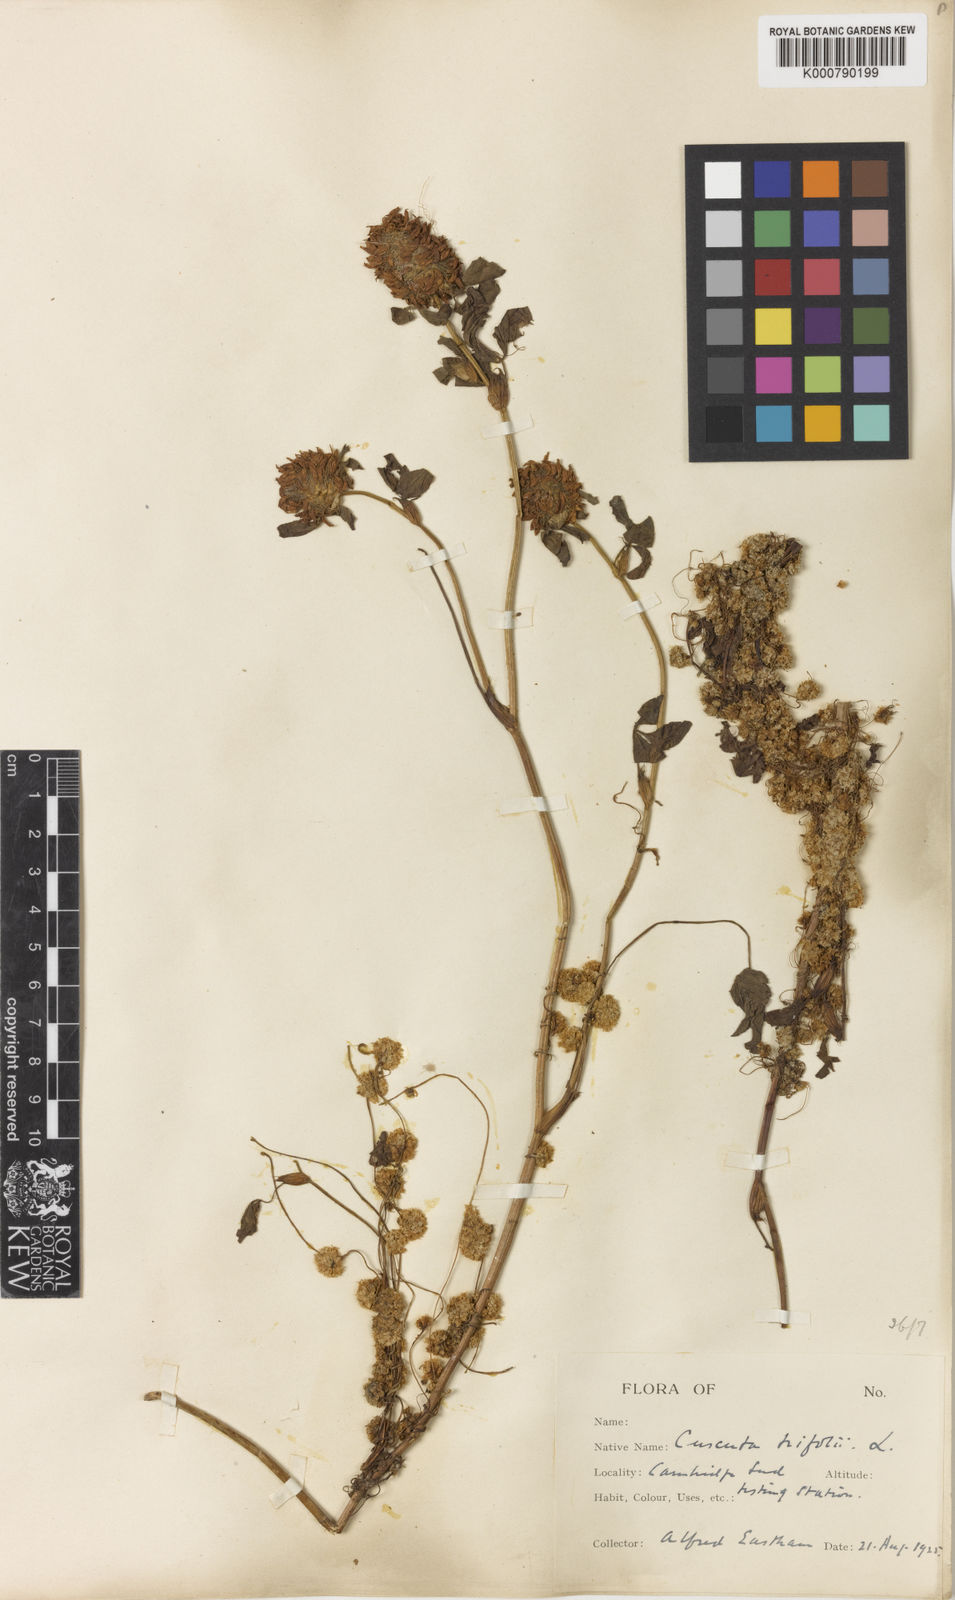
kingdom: Plantae
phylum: Tracheophyta
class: Magnoliopsida
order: Solanales
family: Convolvulaceae
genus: Cuscuta
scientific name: Cuscuta epithymum
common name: Clover dodder
